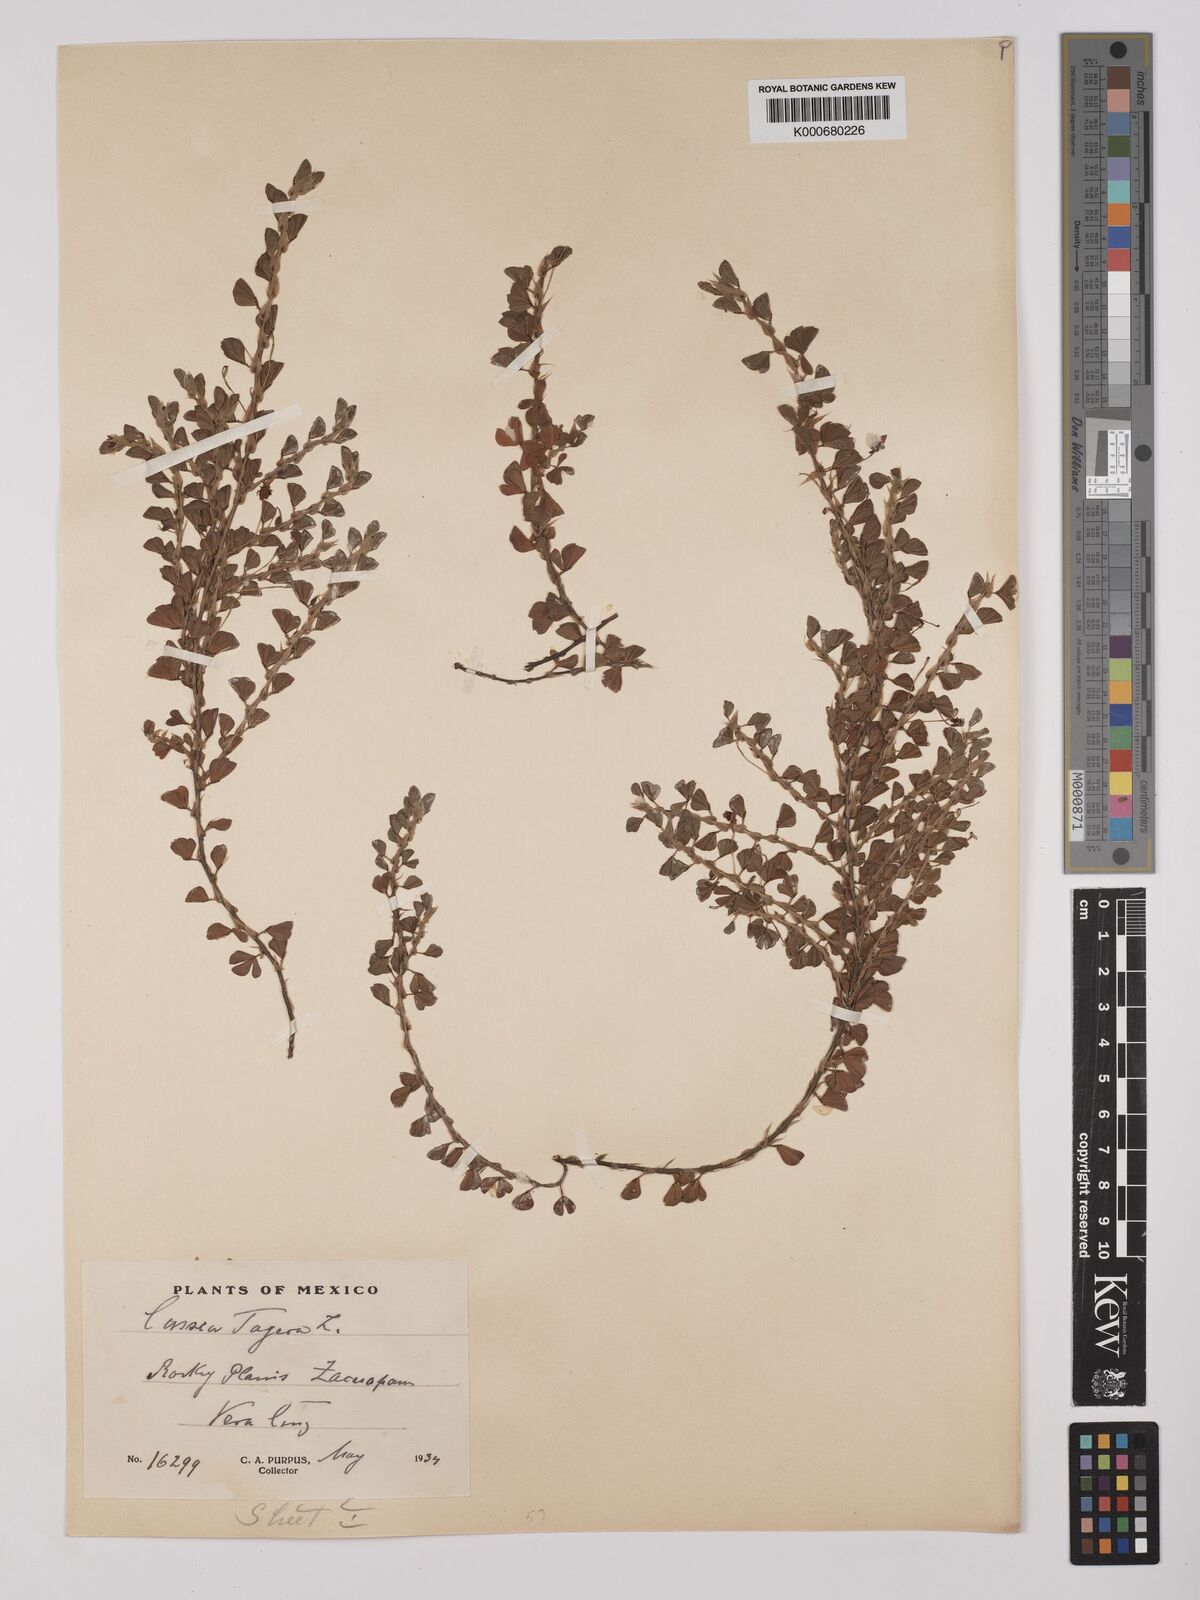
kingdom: Plantae
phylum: Tracheophyta
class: Magnoliopsida
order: Fabales
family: Fabaceae
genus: Chamaecrista
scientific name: Chamaecrista kunthiana
